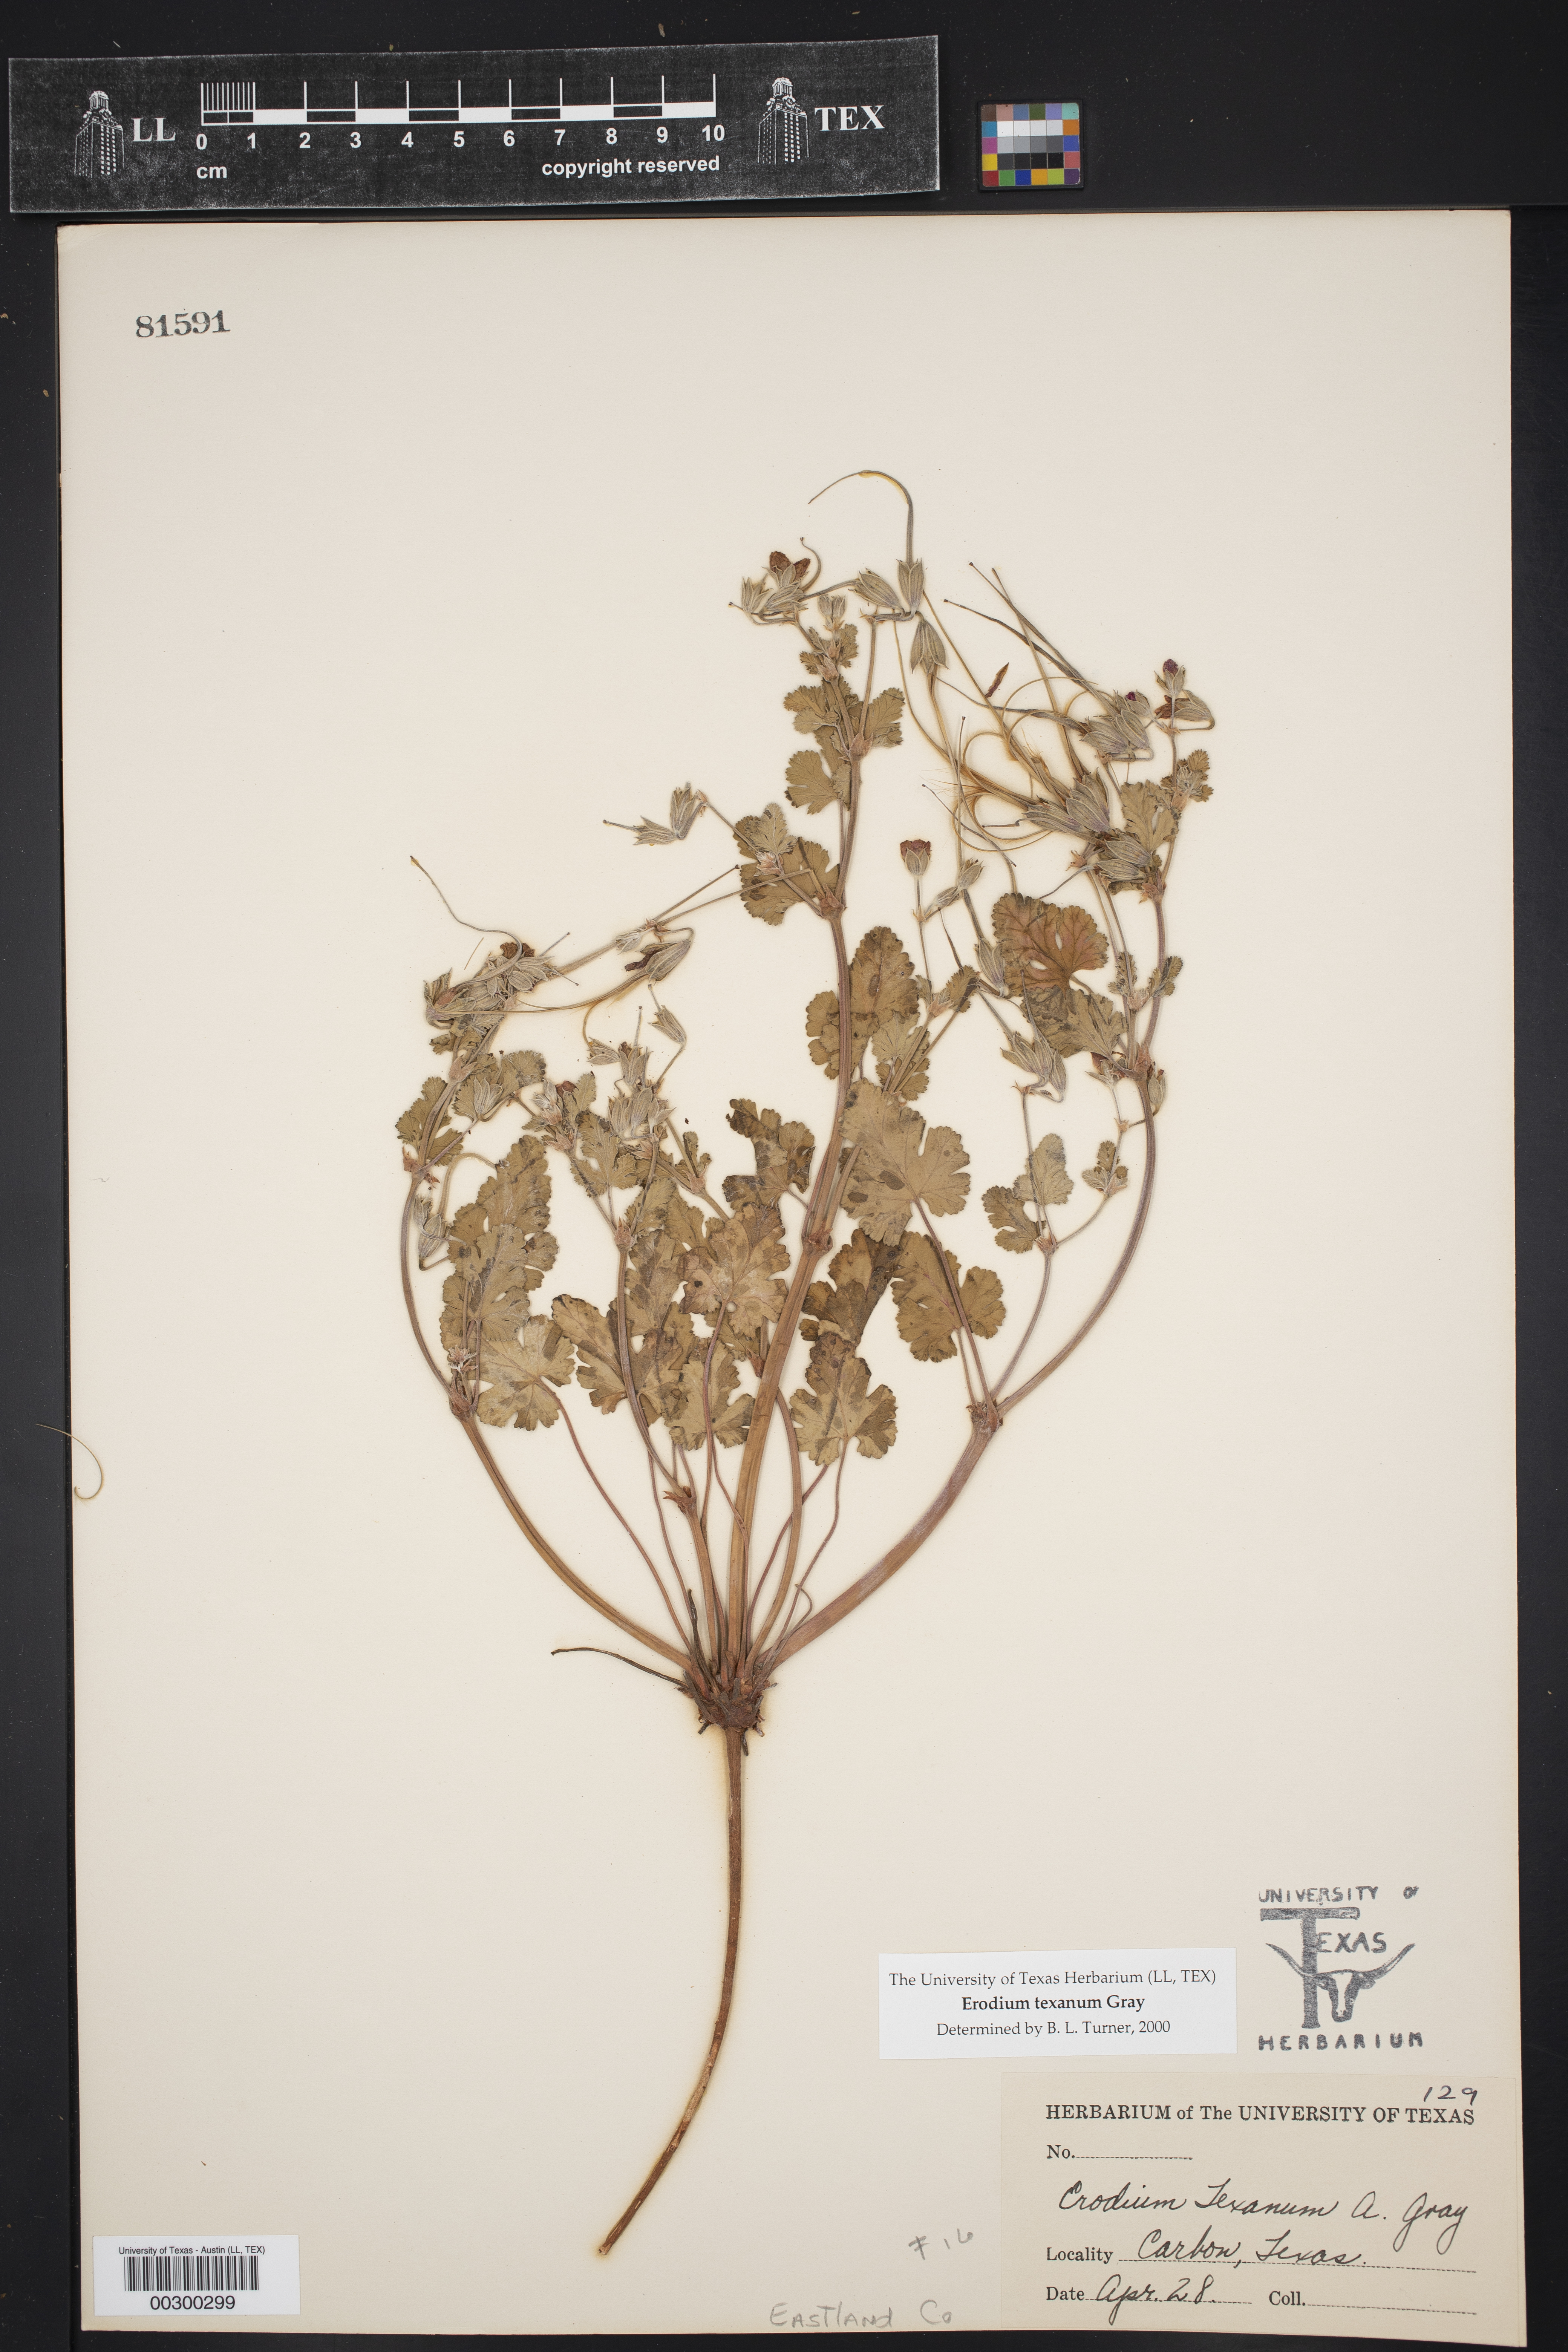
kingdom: Plantae
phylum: Tracheophyta
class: Magnoliopsida
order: Geraniales
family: Geraniaceae
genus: Erodium
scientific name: Erodium texanum
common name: Texas stork's-bill
